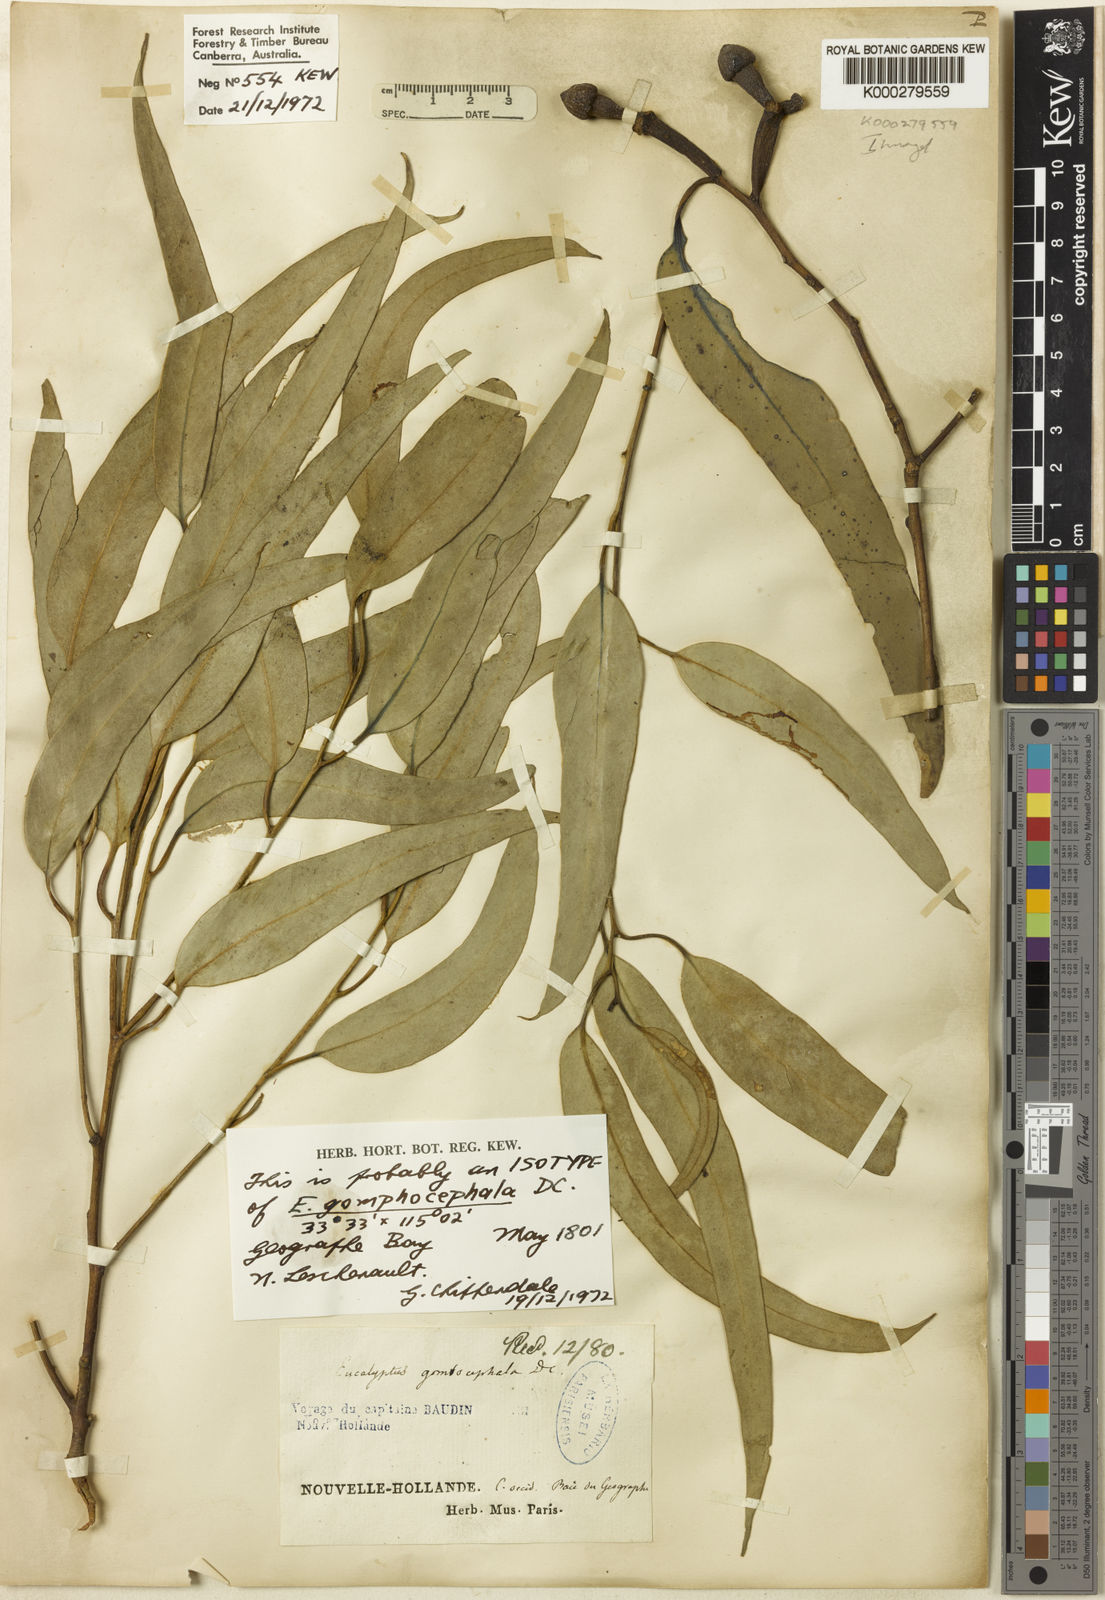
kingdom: Plantae
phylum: Tracheophyta
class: Magnoliopsida
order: Myrtales
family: Myrtaceae
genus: Eucalyptus
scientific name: Eucalyptus gomphocephala
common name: Tuart
